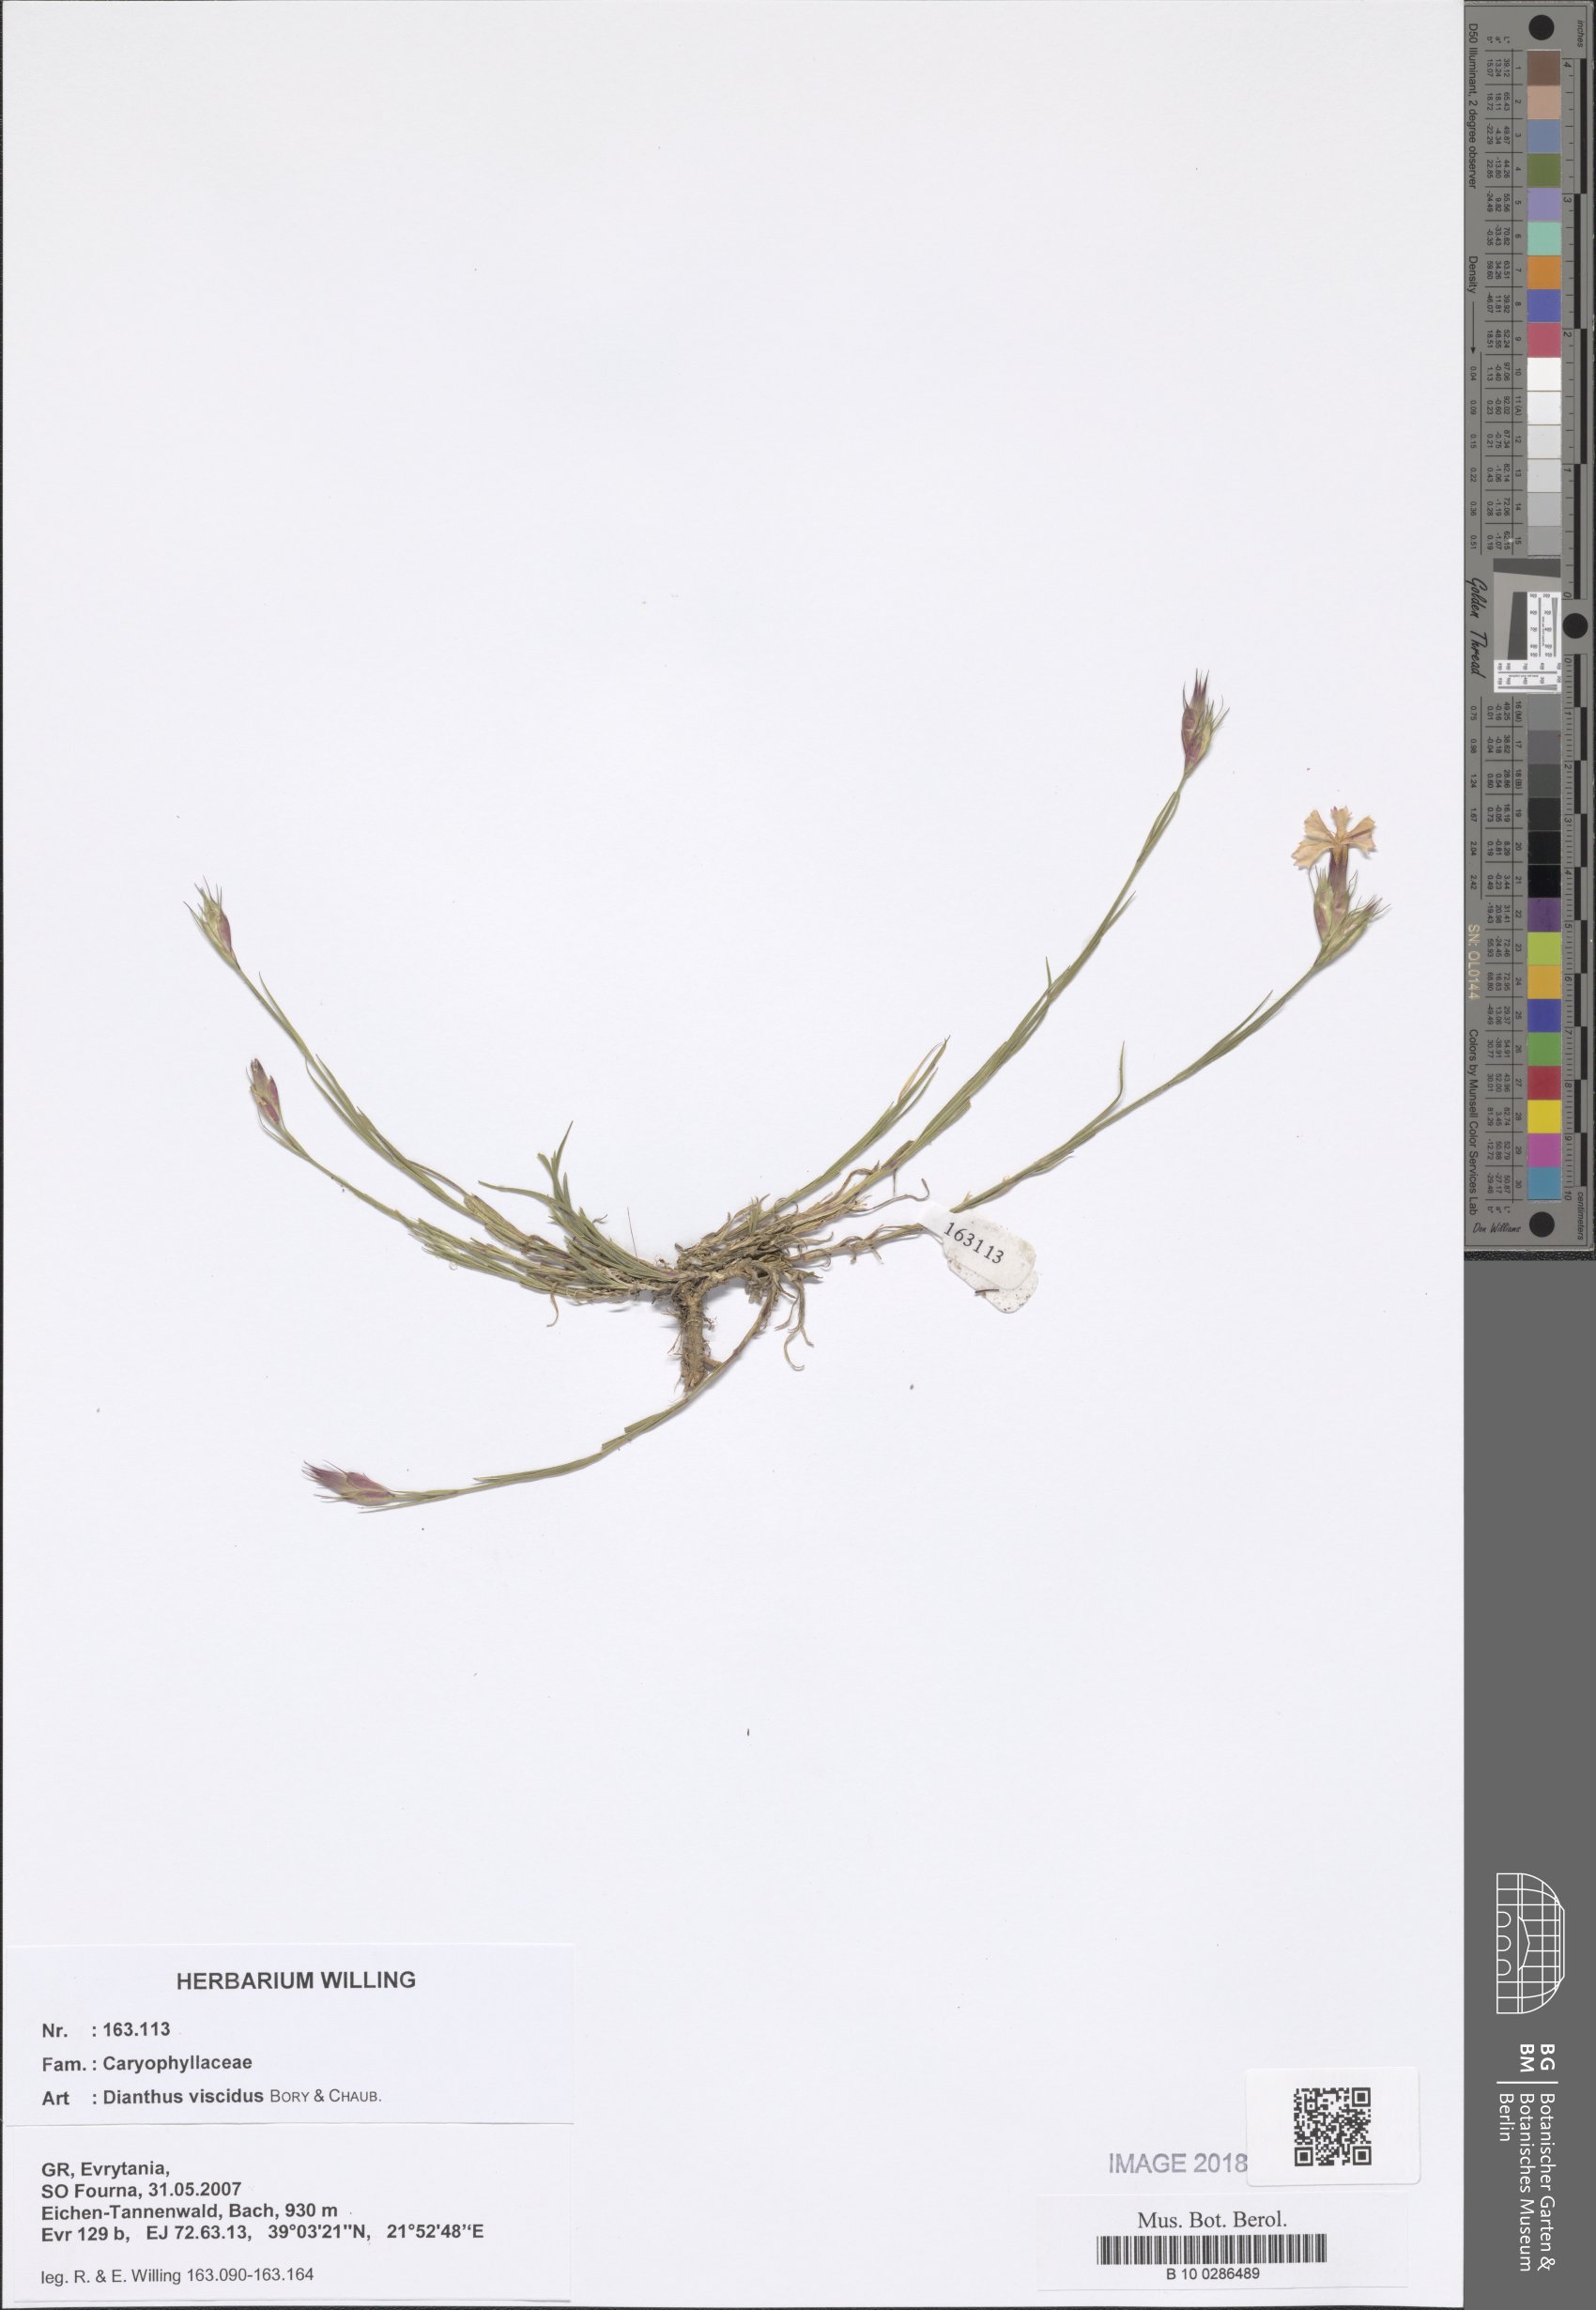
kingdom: Plantae
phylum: Tracheophyta
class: Magnoliopsida
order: Caryophyllales
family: Caryophyllaceae
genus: Dianthus
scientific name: Dianthus viscidus
